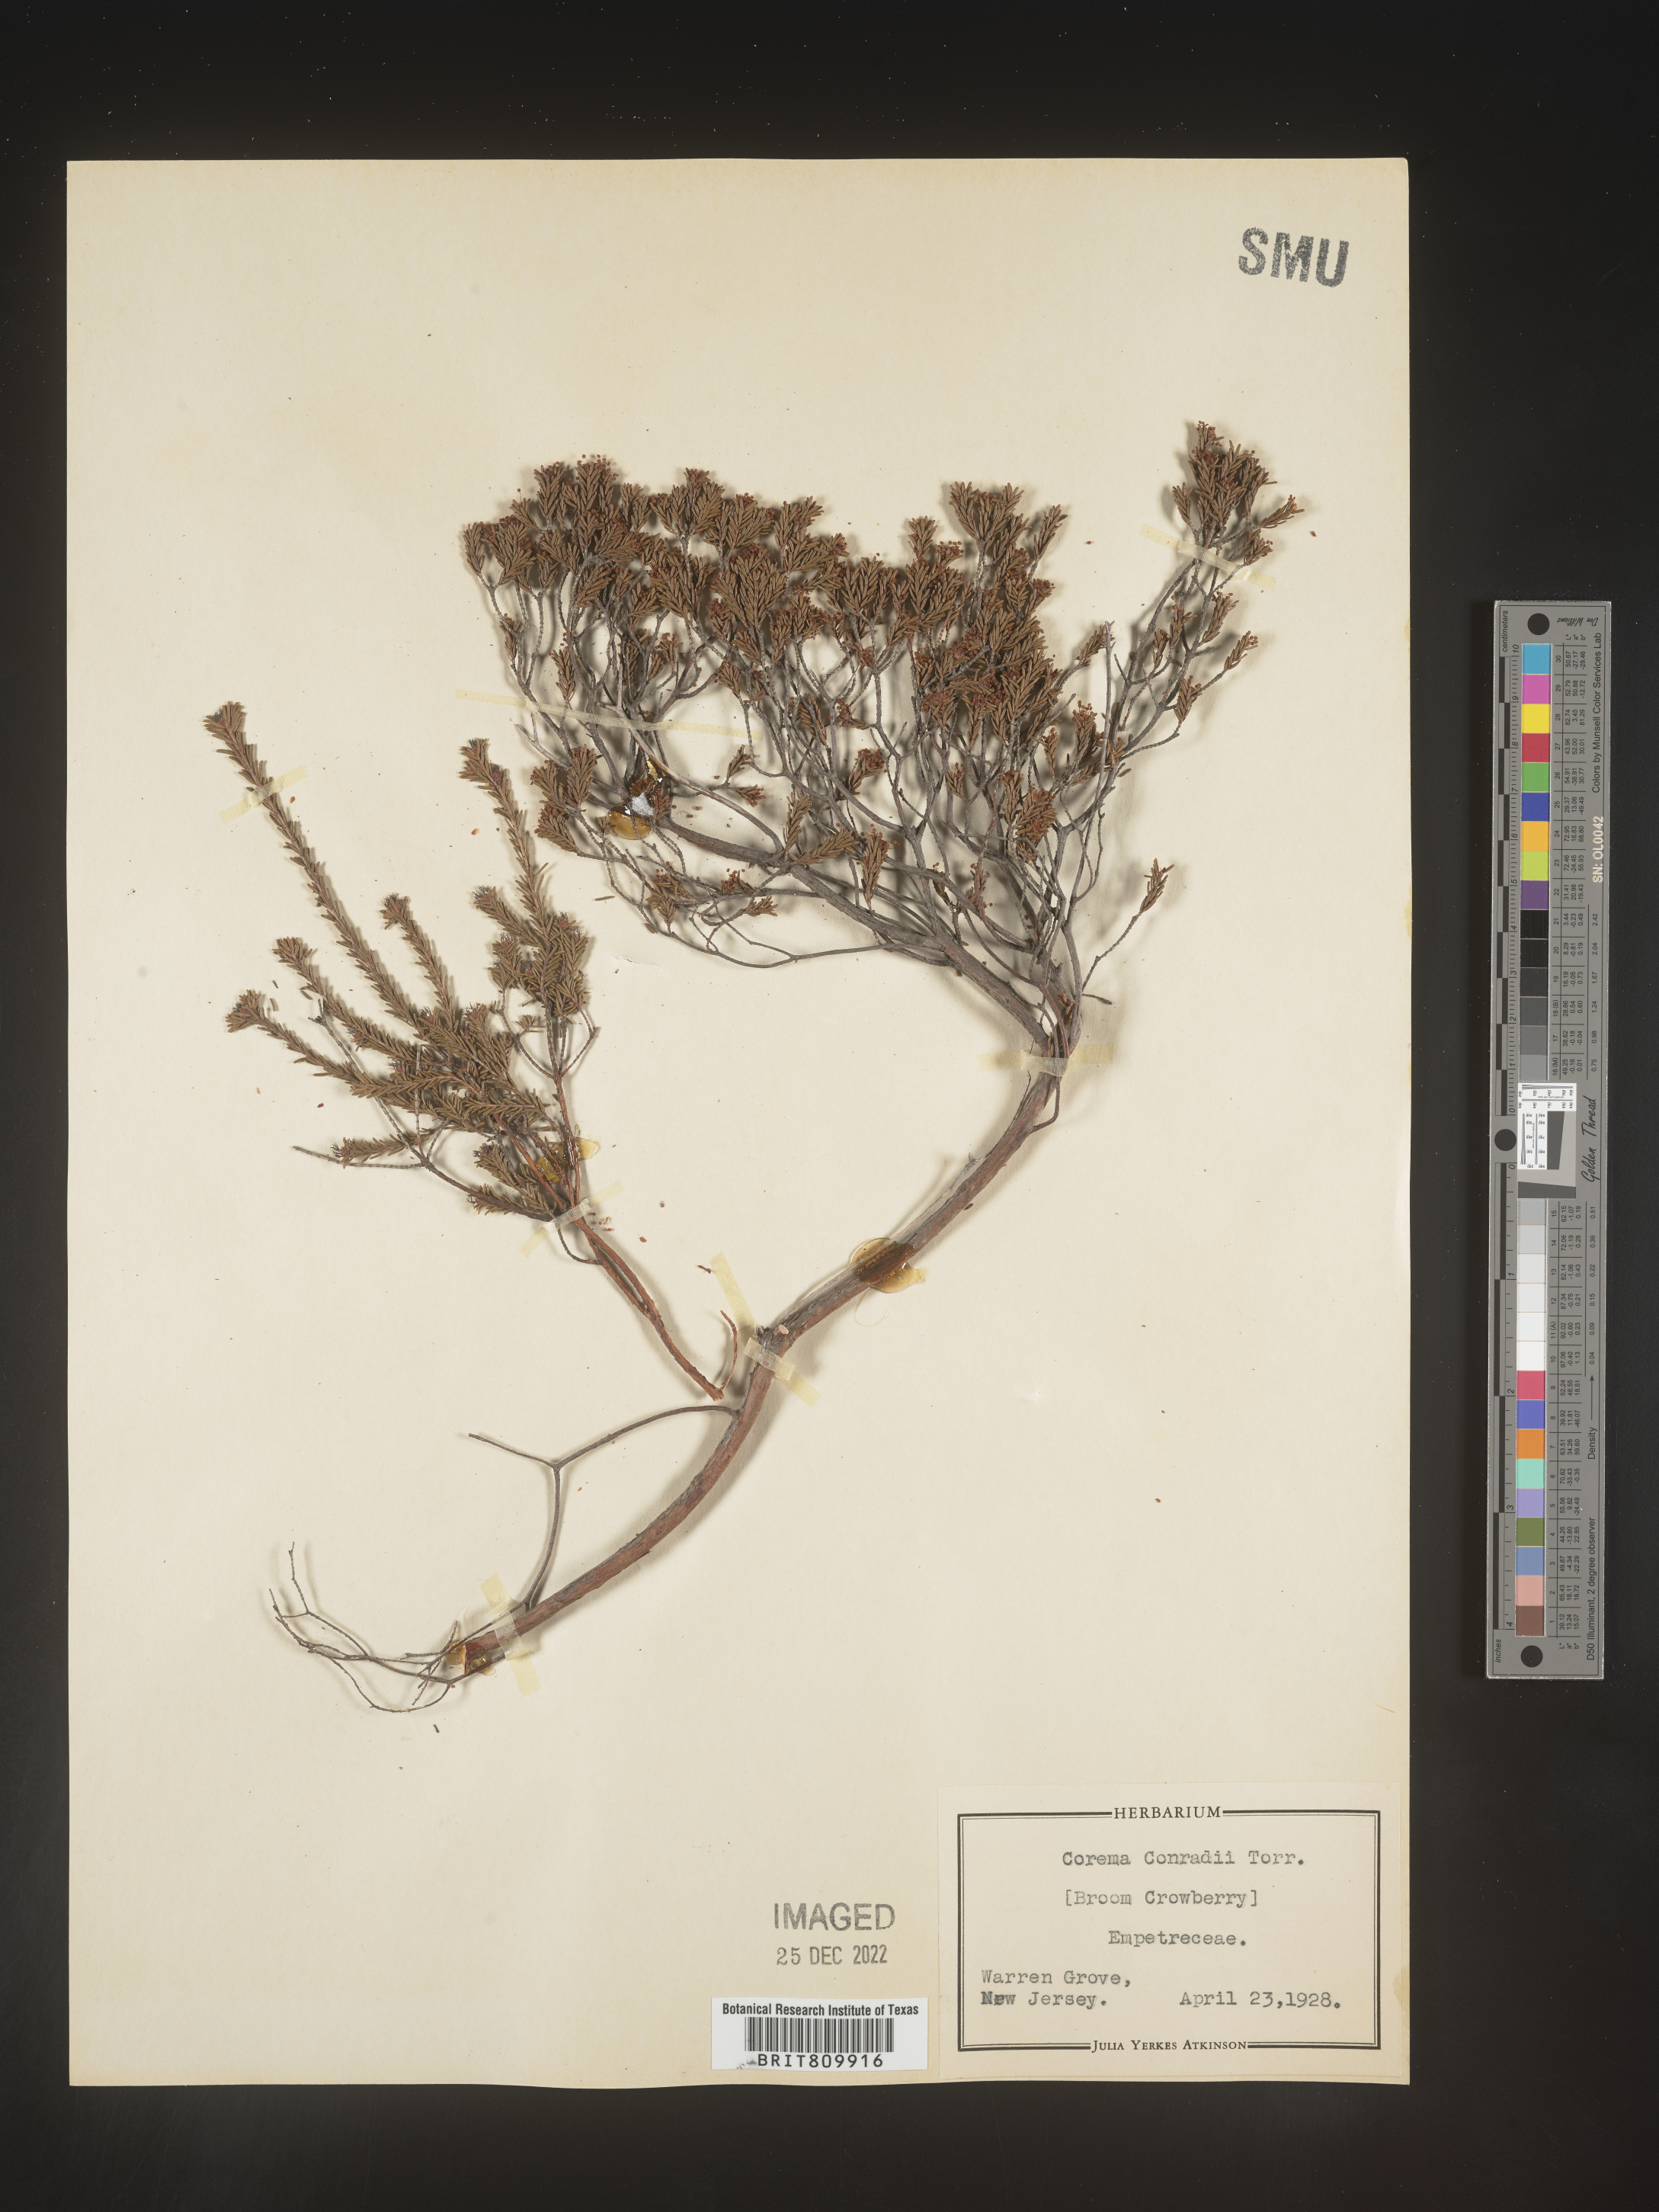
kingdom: Plantae
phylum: Tracheophyta
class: Magnoliopsida
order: Ericales
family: Ericaceae
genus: Corema
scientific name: Corema
